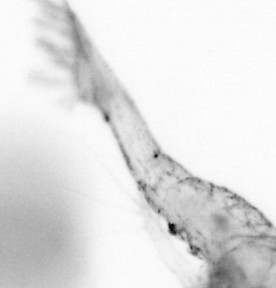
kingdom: Animalia
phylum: Arthropoda
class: Copepoda
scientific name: Copepoda
